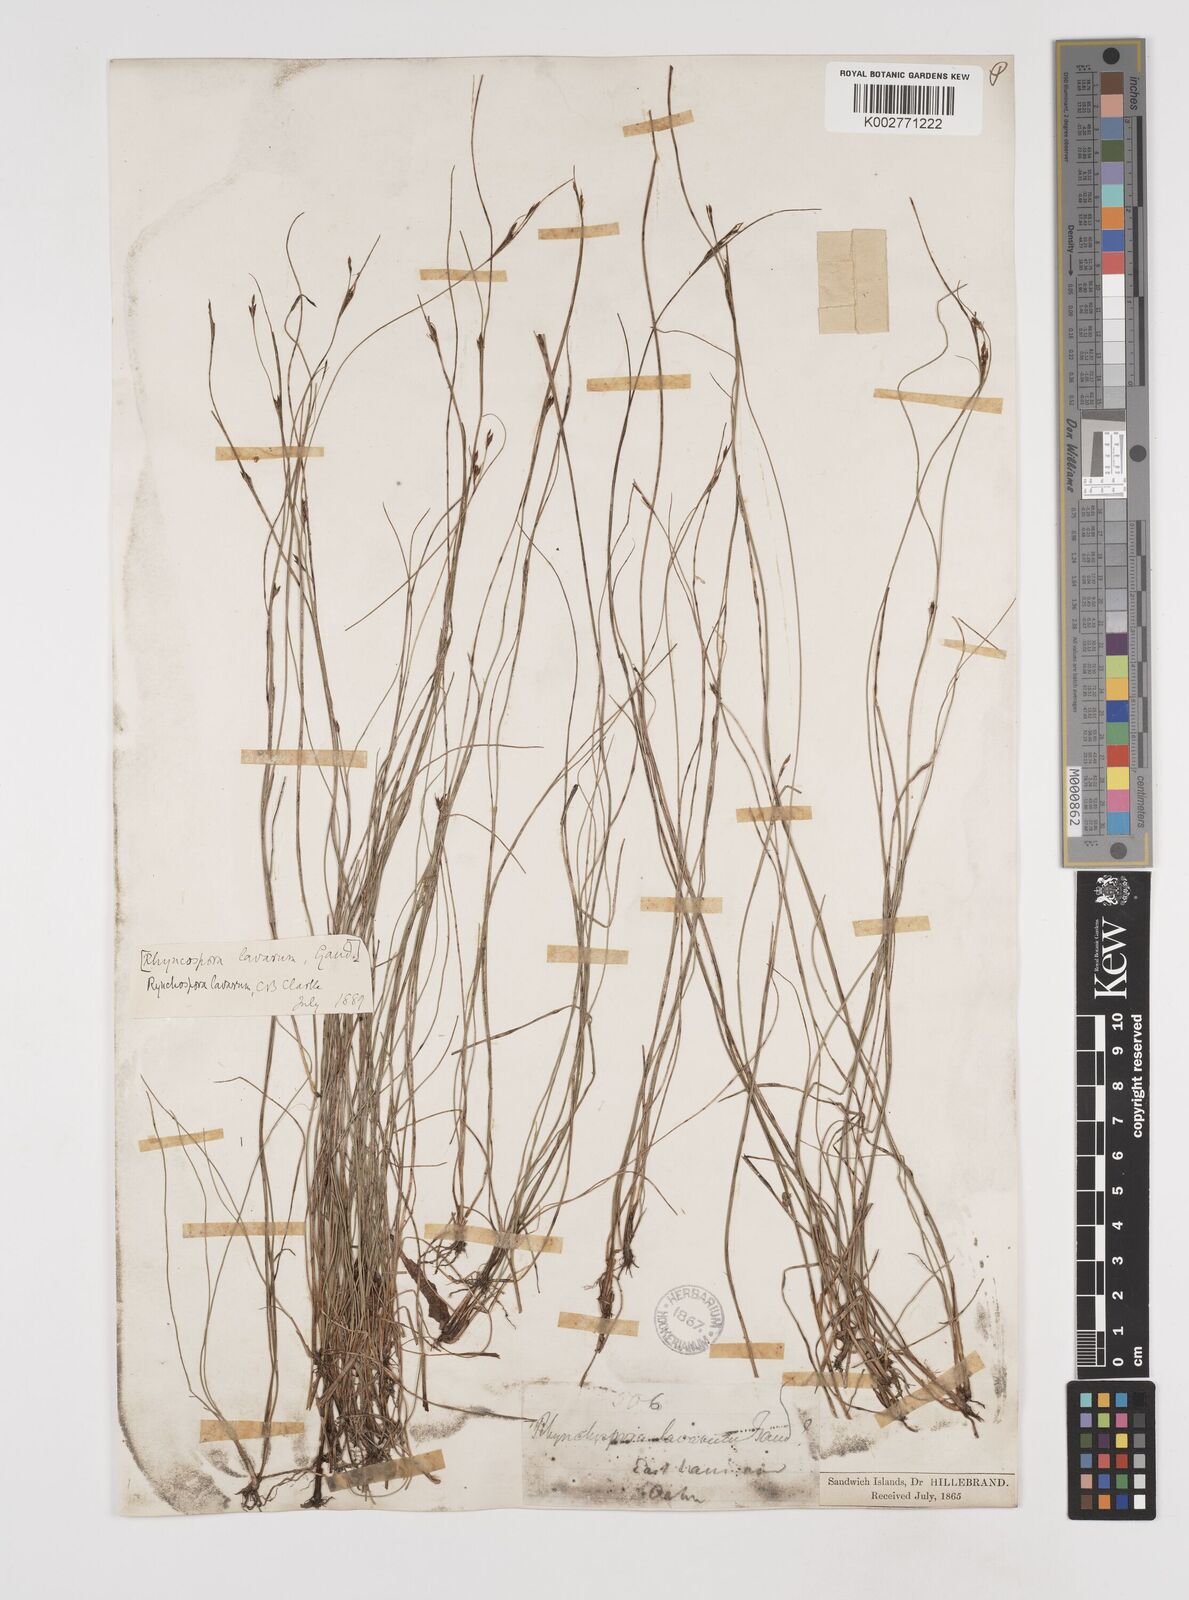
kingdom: Plantae
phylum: Tracheophyta
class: Liliopsida
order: Poales
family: Cyperaceae
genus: Rhynchospora
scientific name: Rhynchospora rugosa
